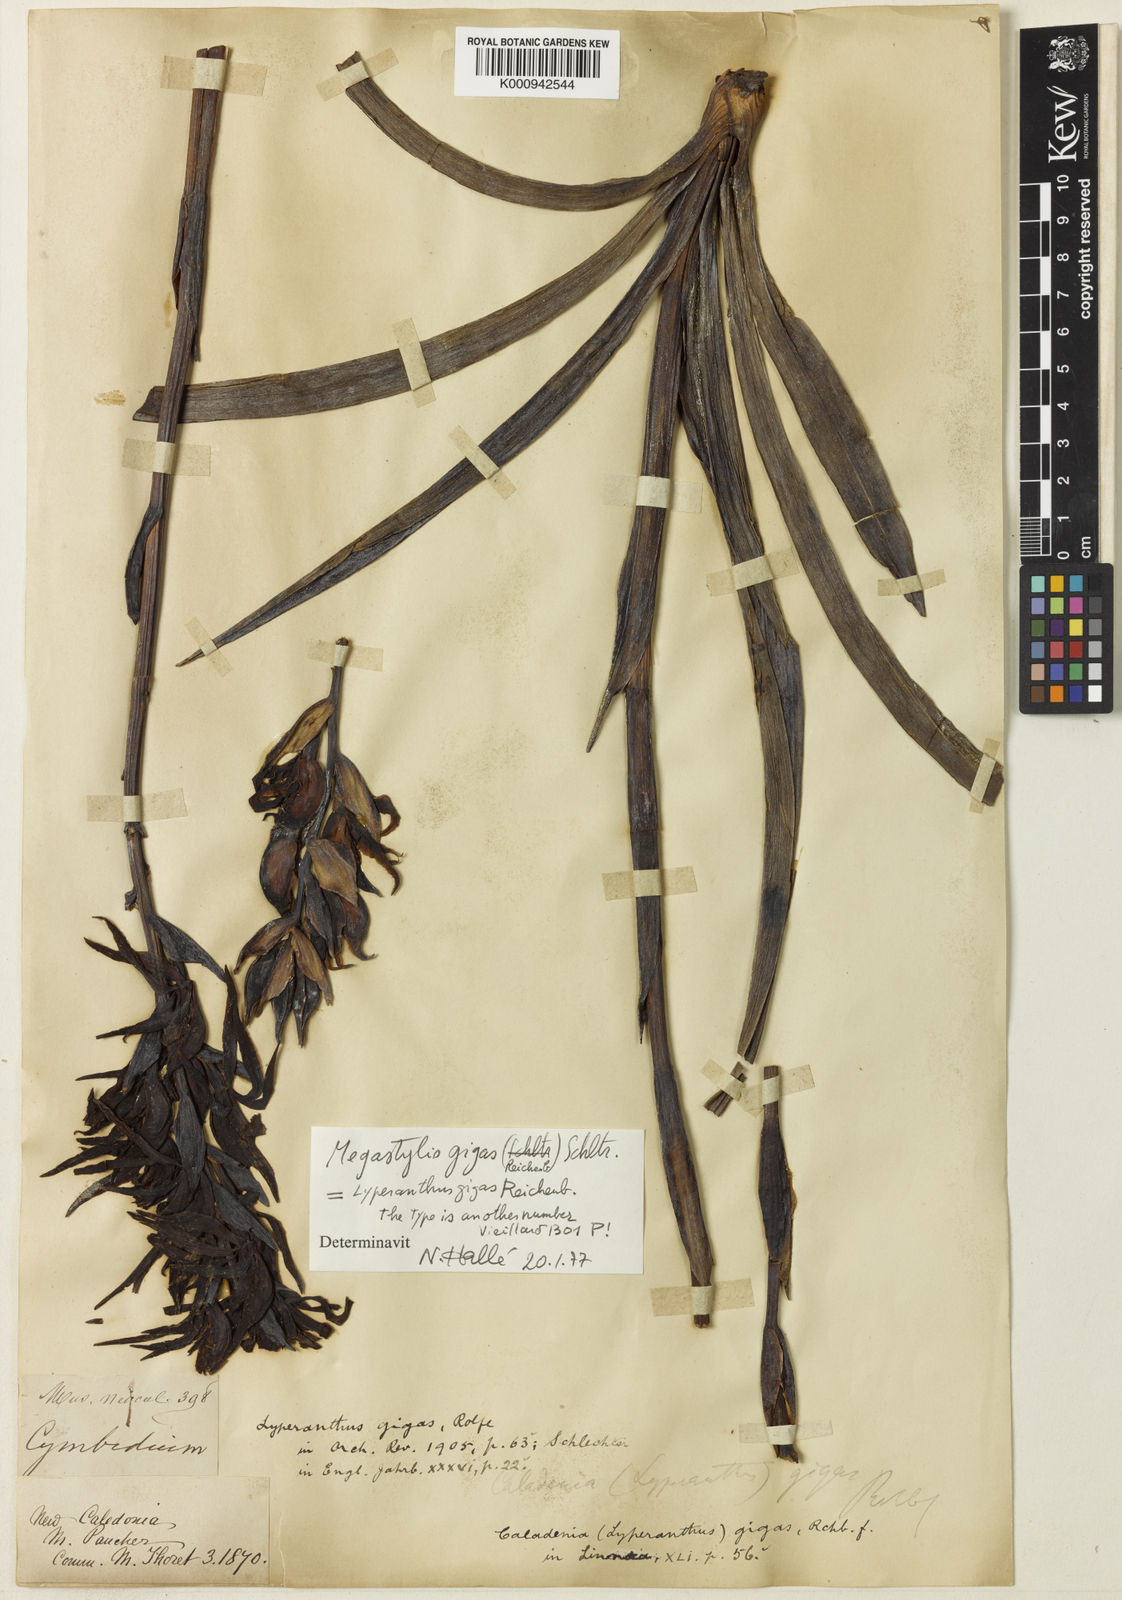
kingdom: Plantae
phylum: Tracheophyta
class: Liliopsida
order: Asparagales
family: Orchidaceae
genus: Megastylis
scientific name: Megastylis gigas
